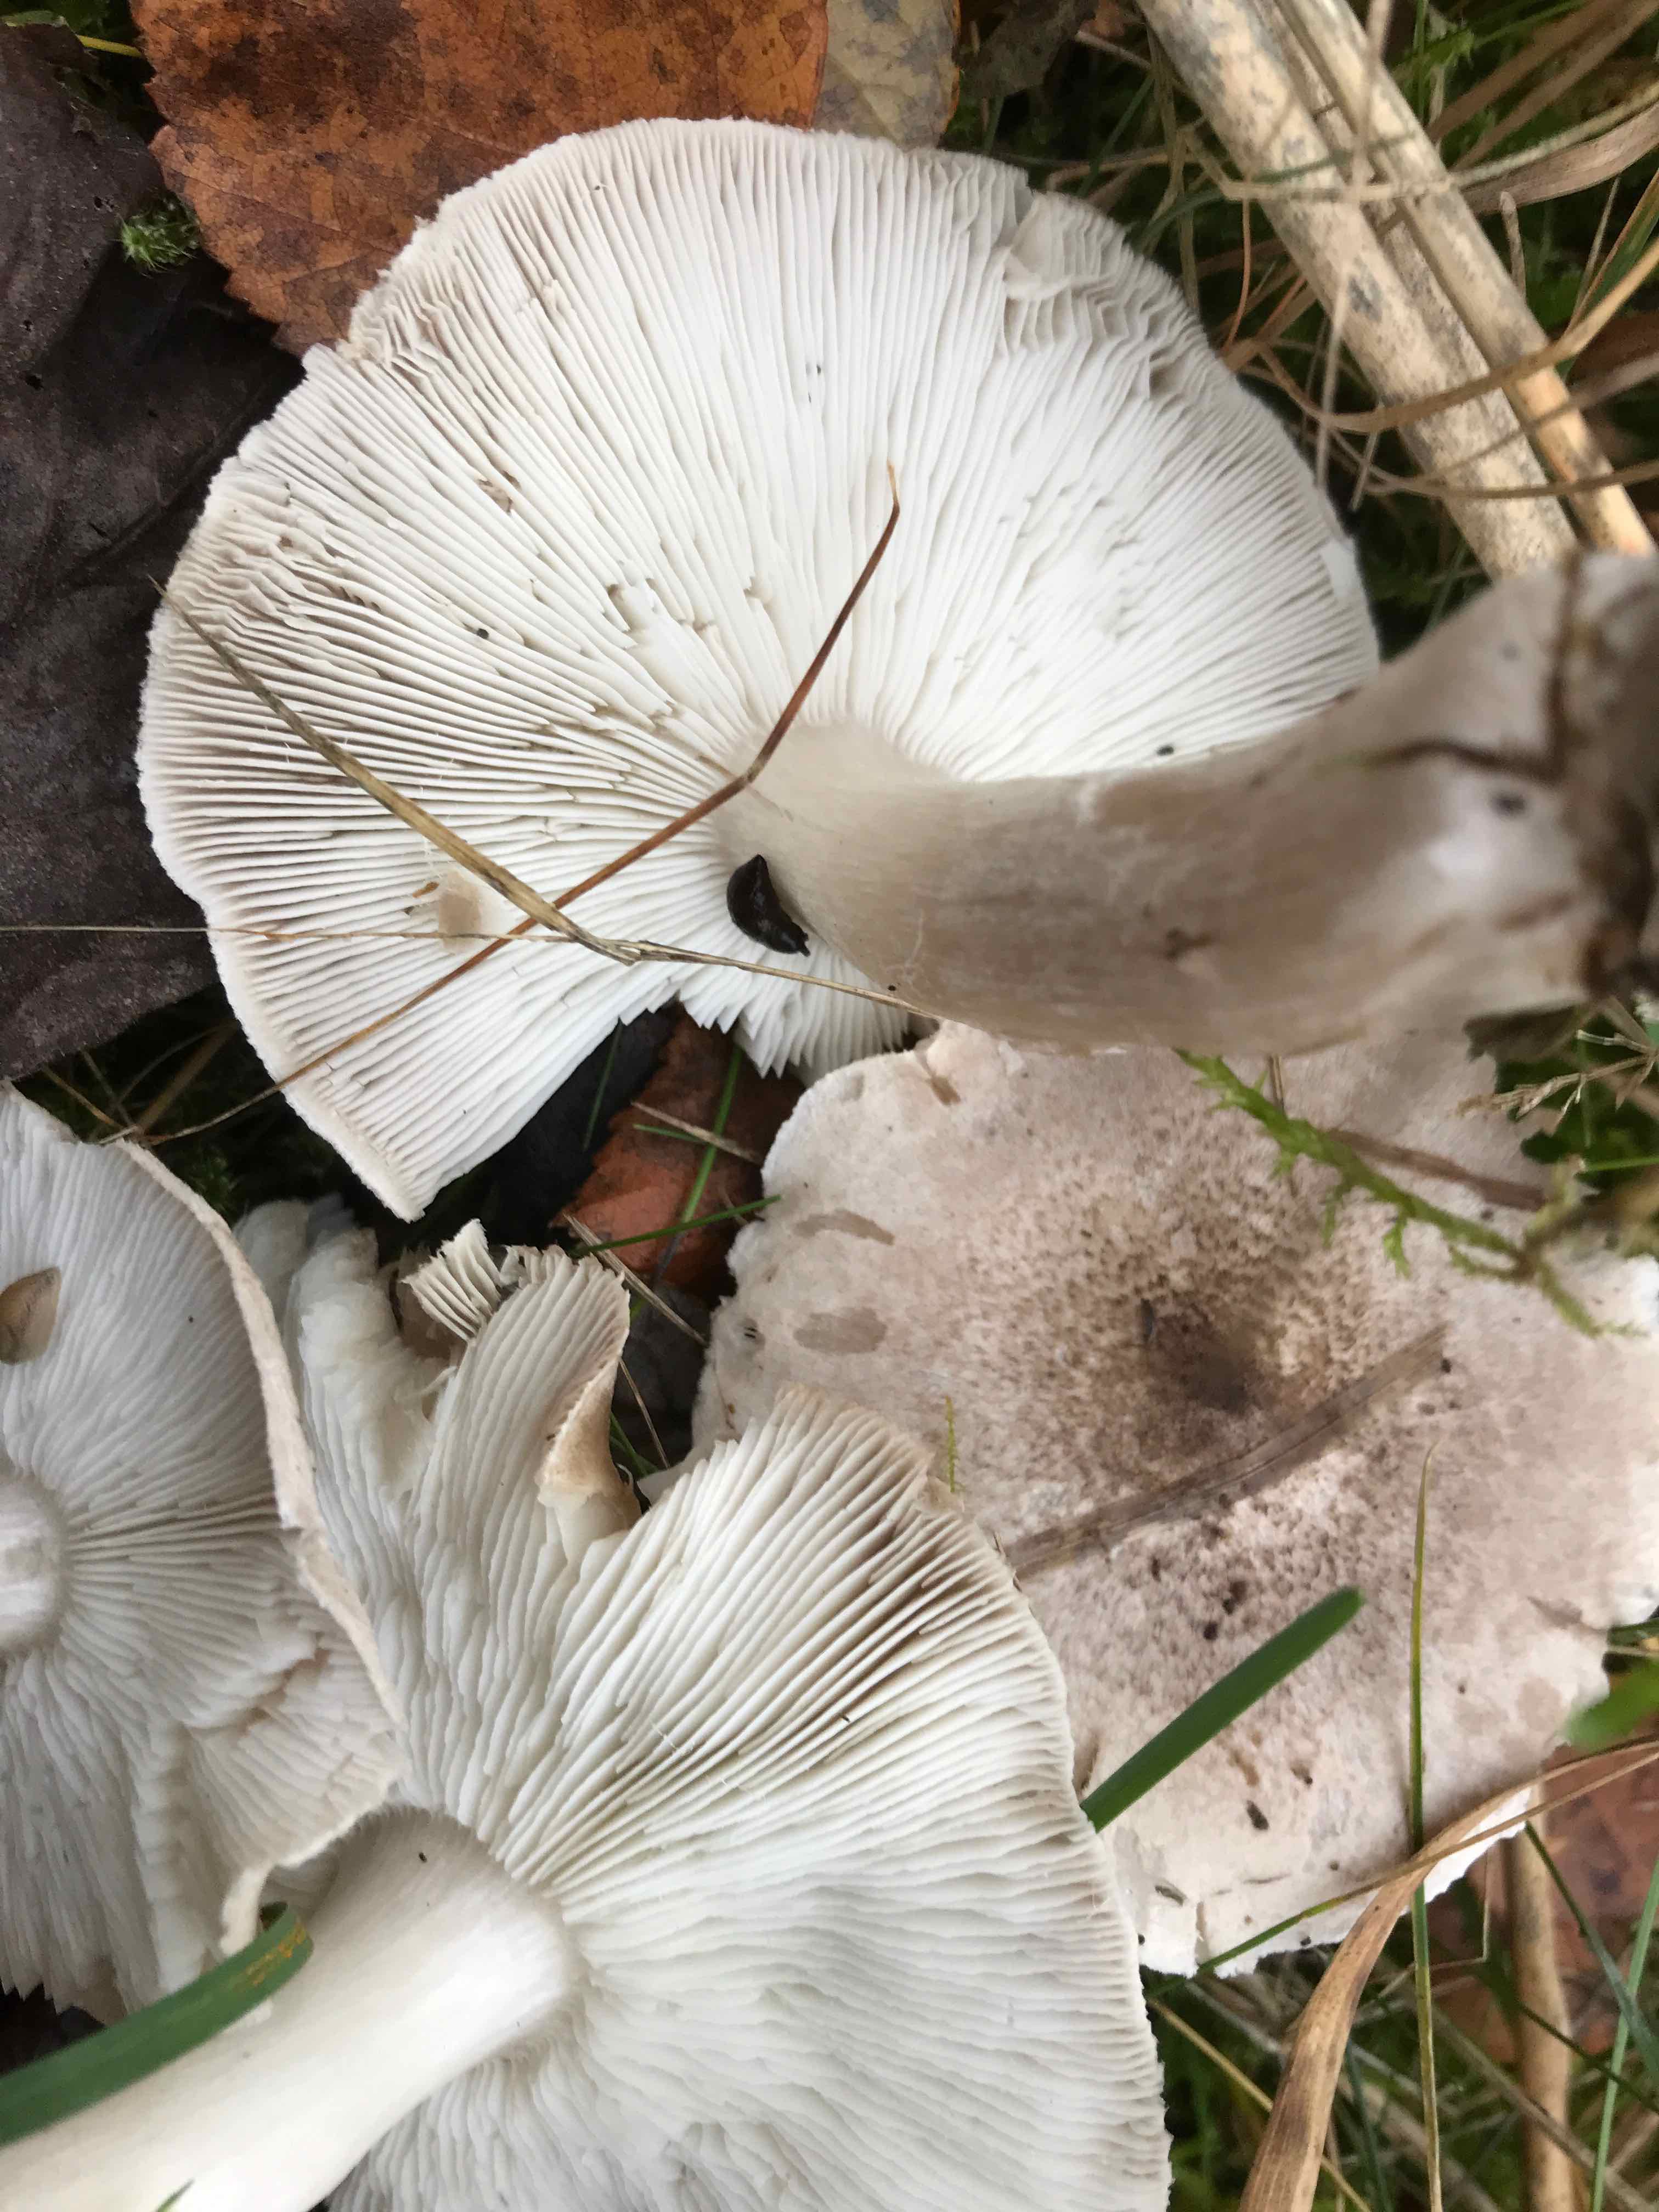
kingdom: Fungi
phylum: Basidiomycota
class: Agaricomycetes
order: Agaricales
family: Tricholomataceae
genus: Tricholoma
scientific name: Tricholoma argyraceum
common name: slør-ridderhat
